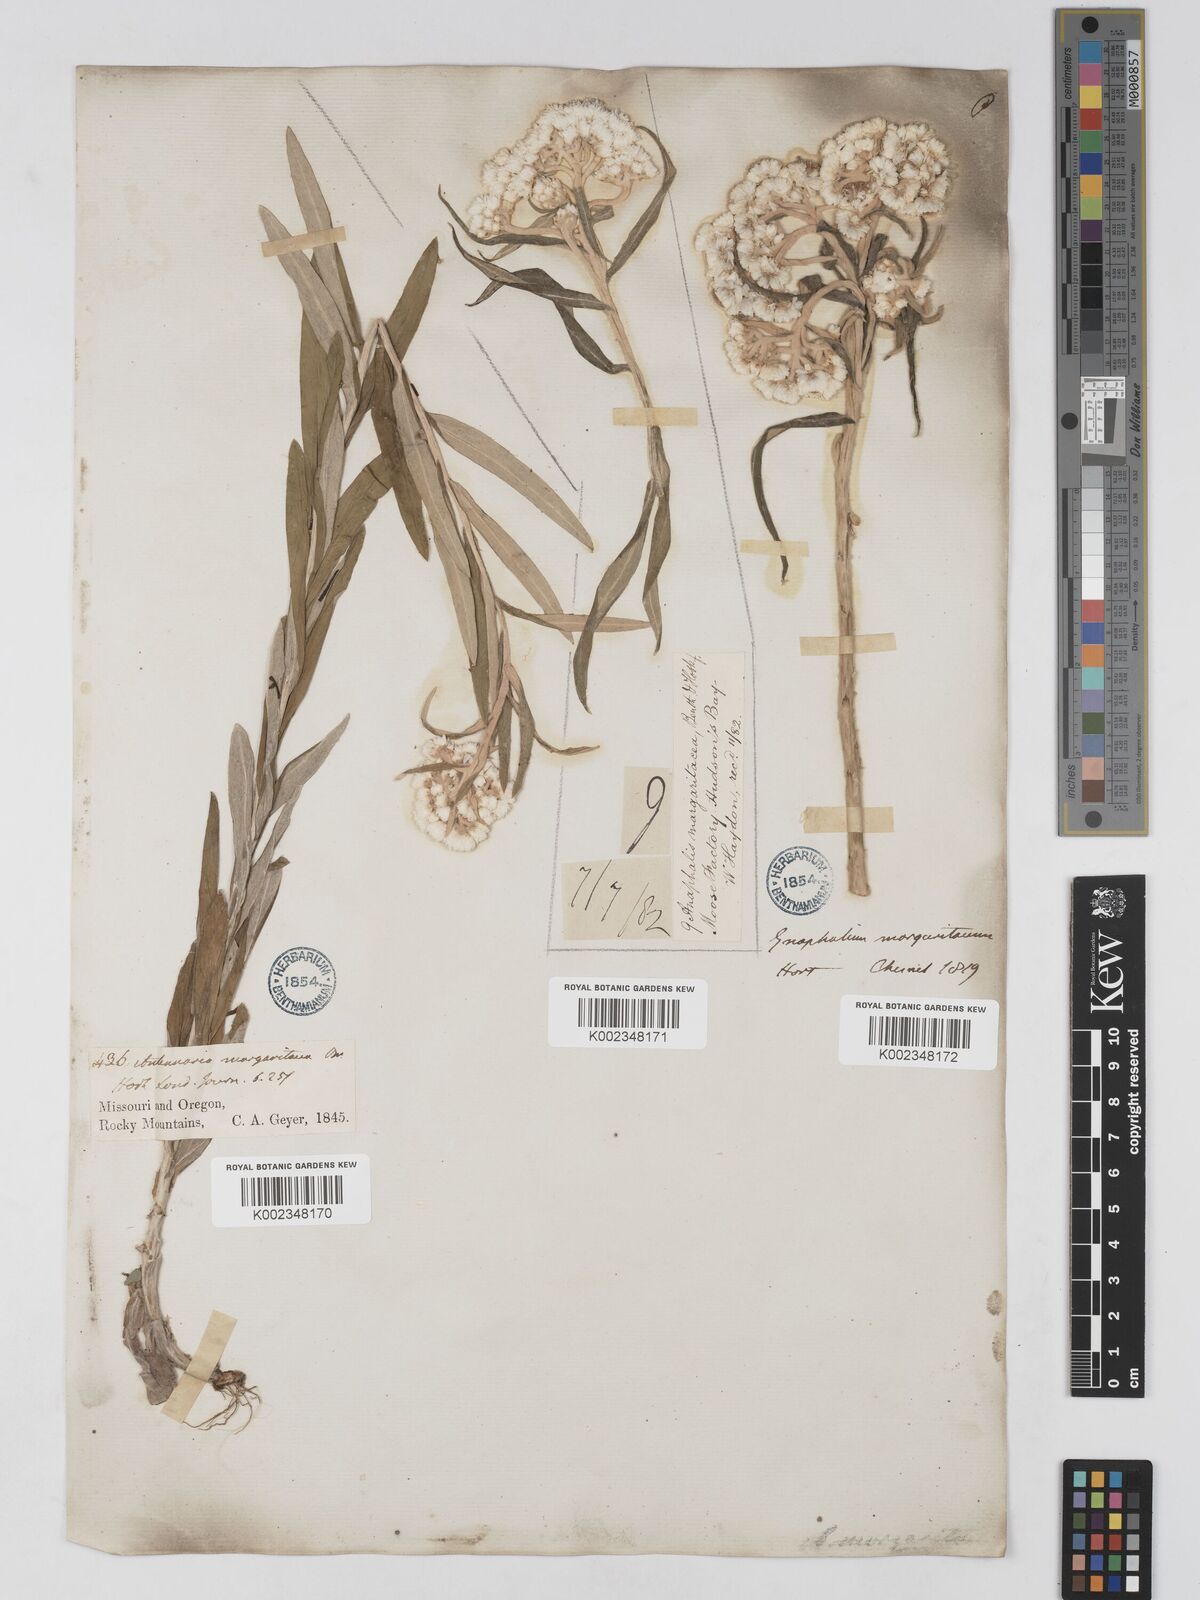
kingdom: Plantae
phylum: Tracheophyta
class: Magnoliopsida
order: Asterales
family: Asteraceae
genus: Anaphalis
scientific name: Anaphalis margaritacea
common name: Pearly everlasting
